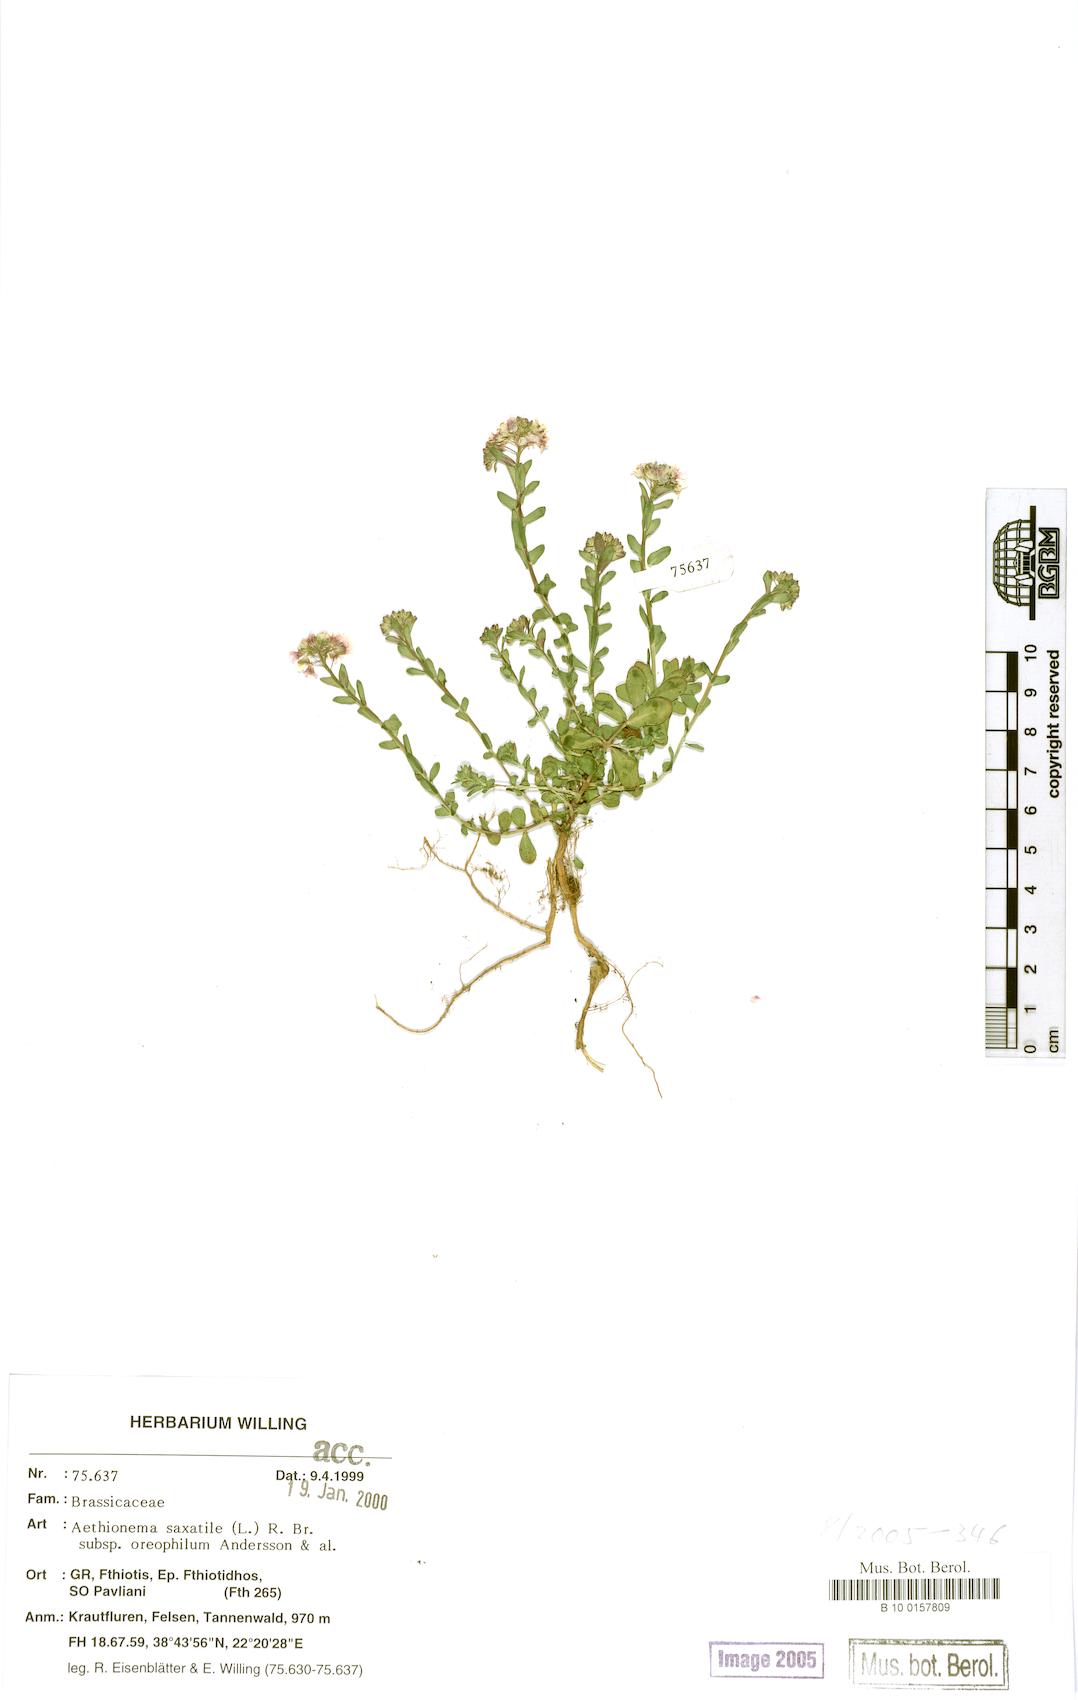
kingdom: Plantae
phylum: Tracheophyta
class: Magnoliopsida
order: Brassicales
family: Brassicaceae
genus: Aethionema
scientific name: Aethionema saxatile
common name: Burnt candytuft
